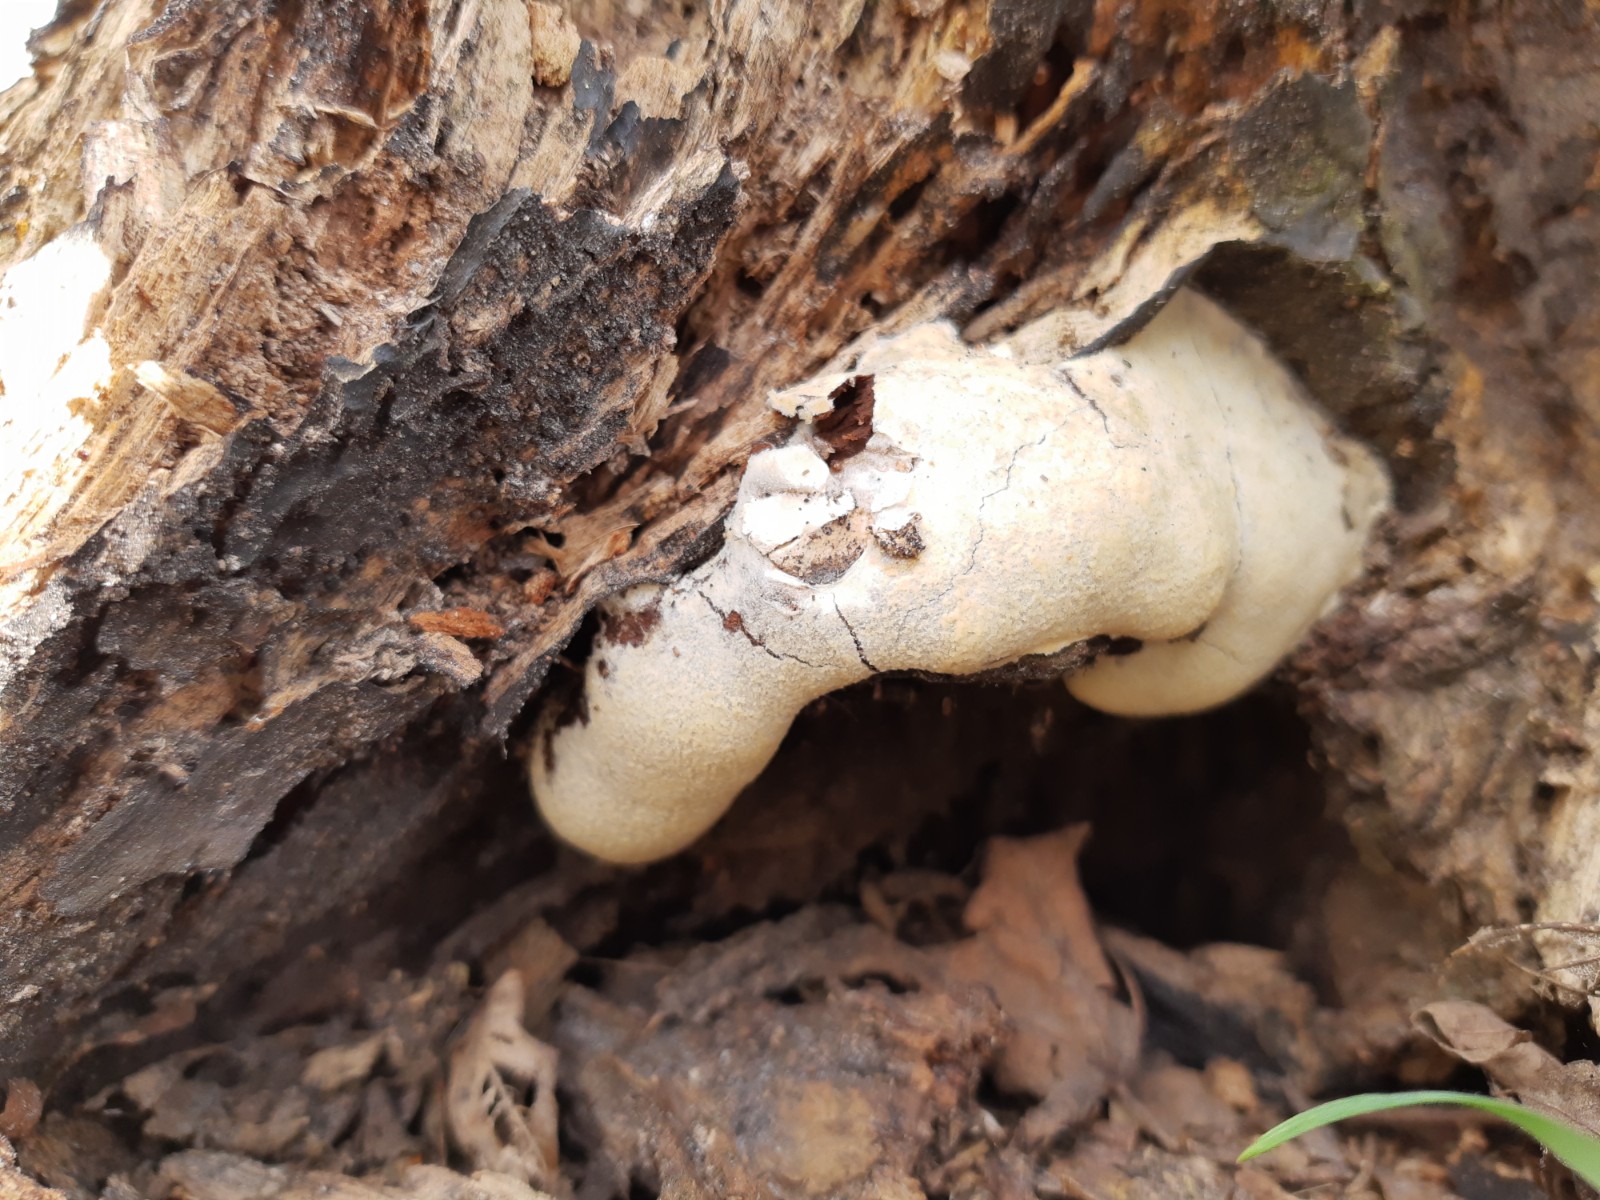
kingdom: Protozoa
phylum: Mycetozoa
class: Myxomycetes
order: Cribrariales
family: Tubiferaceae
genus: Reticularia
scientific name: Reticularia lycoperdon
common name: skinnende støvpude
